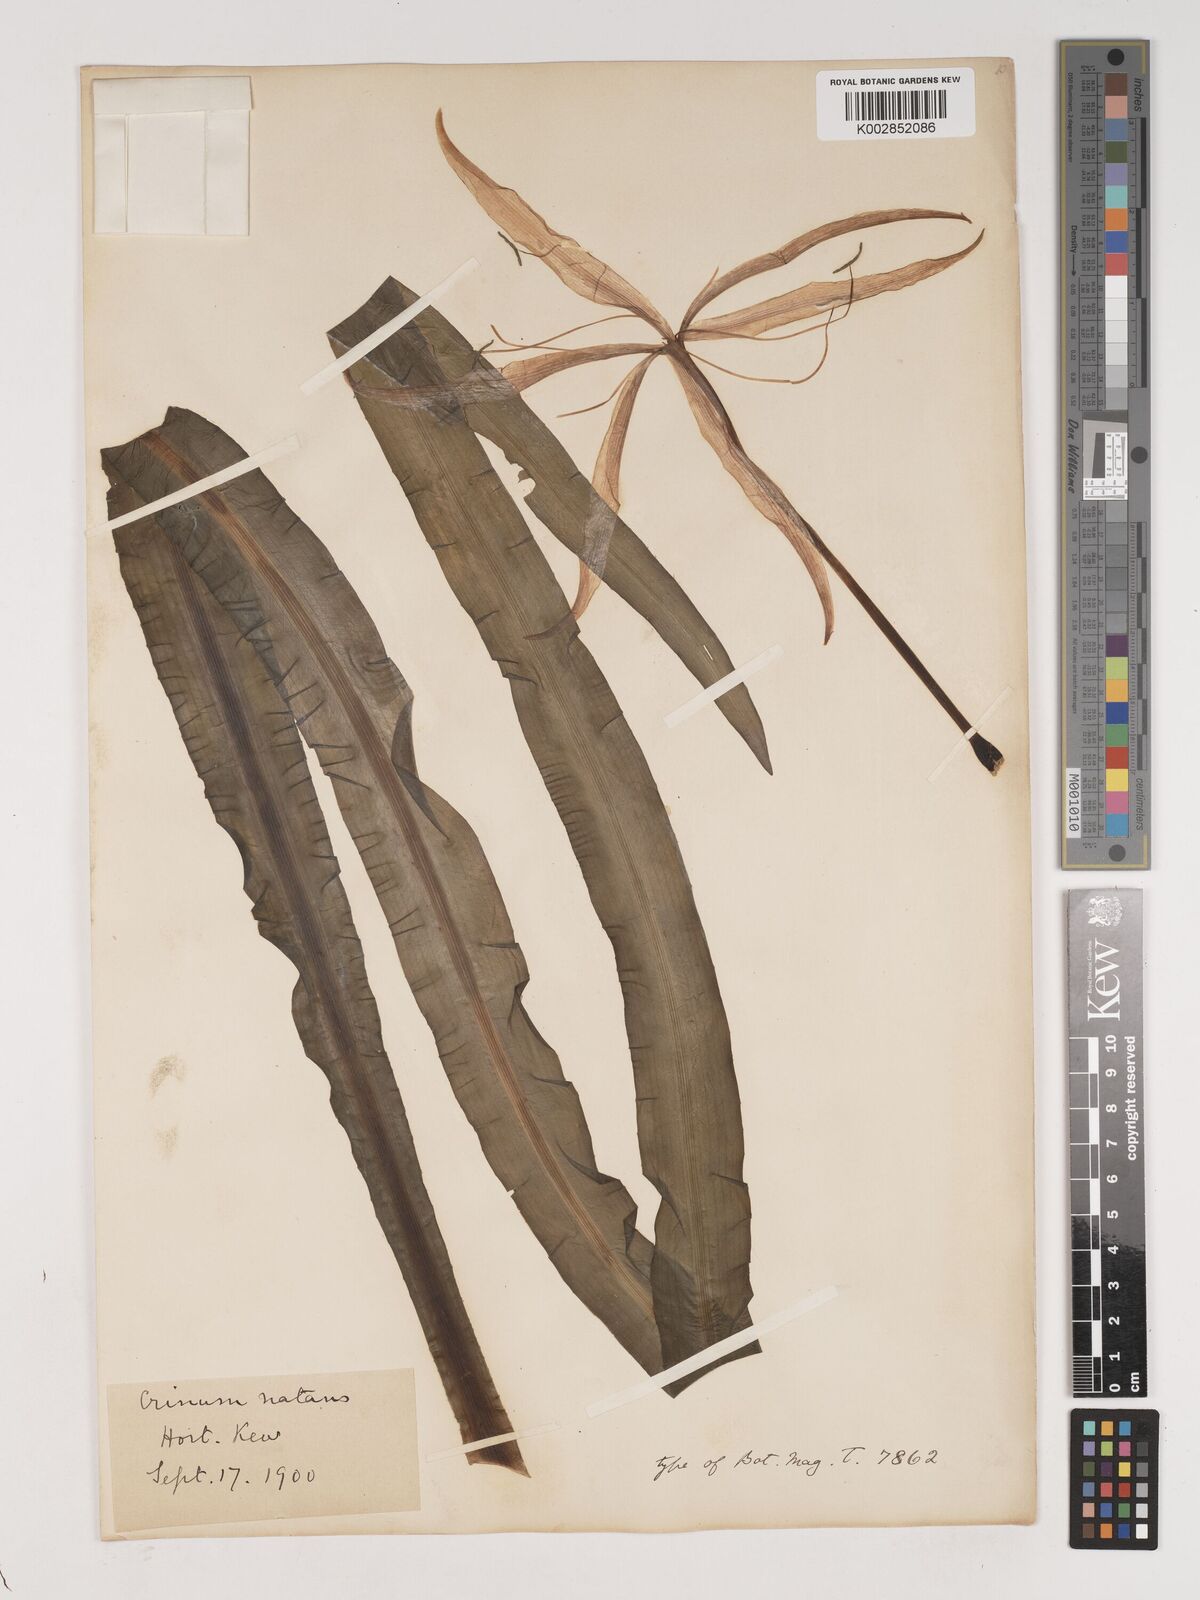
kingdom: Plantae
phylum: Tracheophyta
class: Liliopsida
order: Asparagales
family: Amaryllidaceae
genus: Crinum
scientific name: Crinum natans
